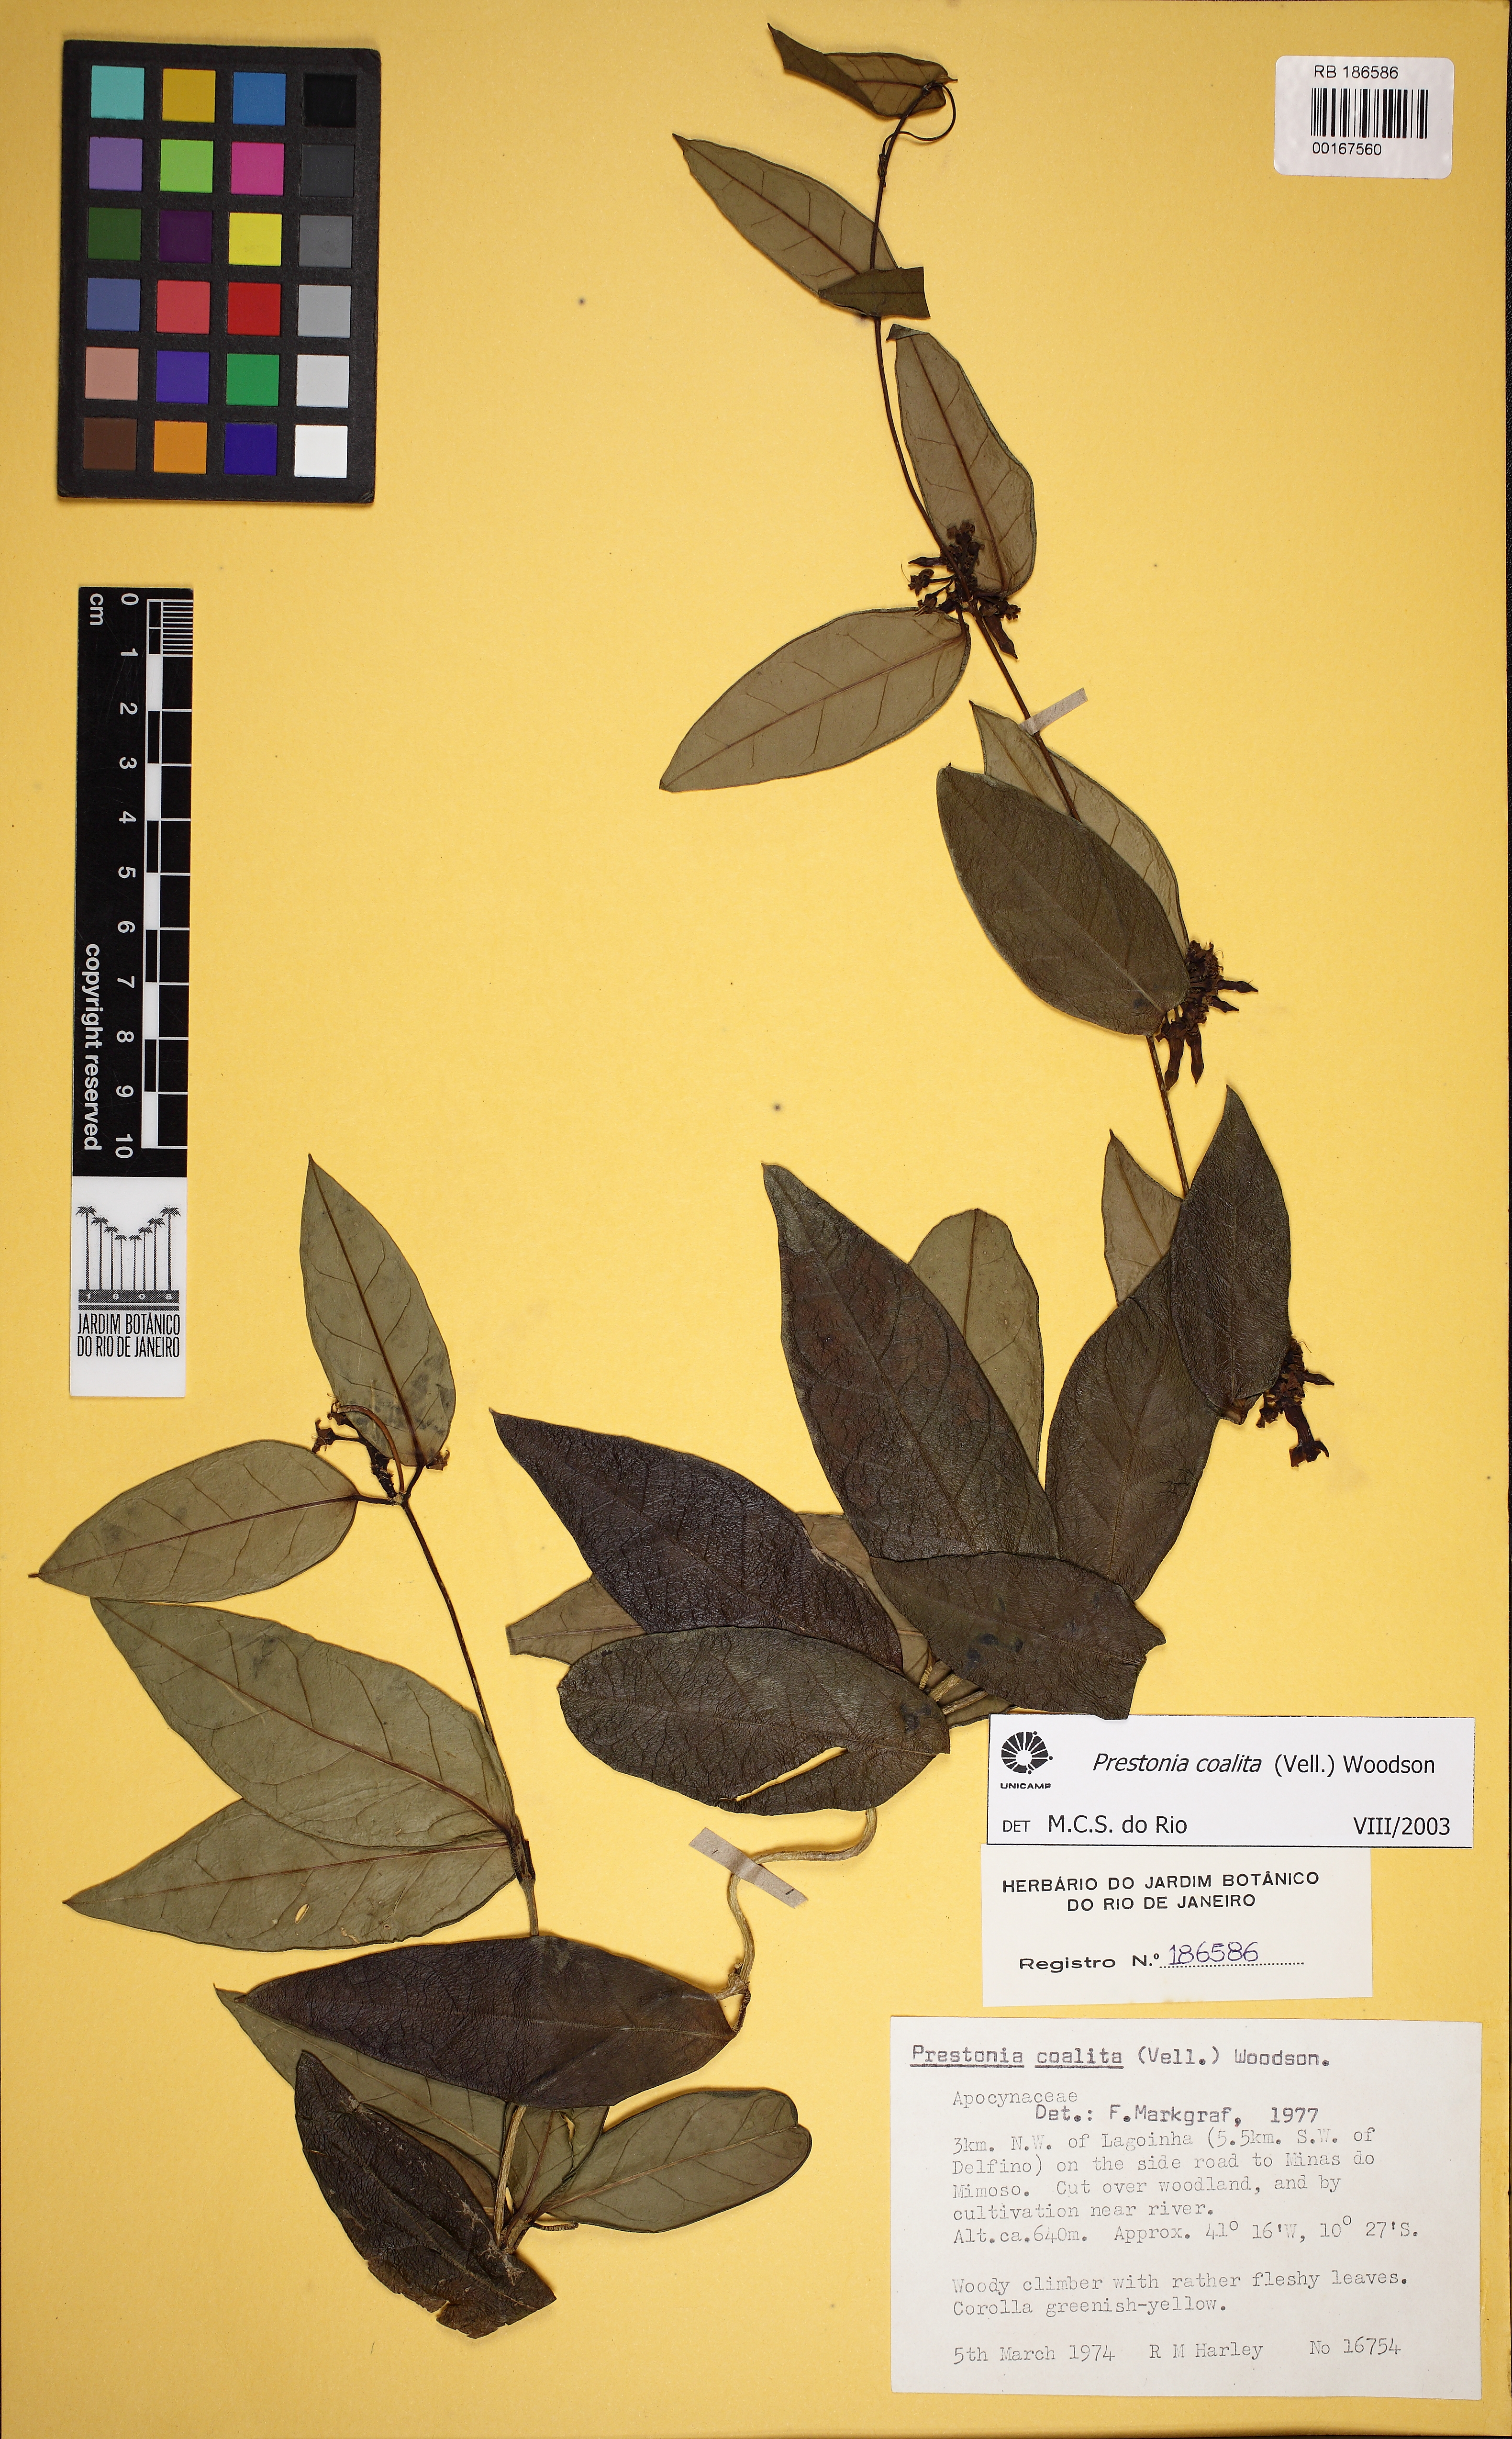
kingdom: Plantae
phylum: Tracheophyta
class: Magnoliopsida
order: Gentianales
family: Apocynaceae
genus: Prestonia
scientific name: Prestonia coalita
